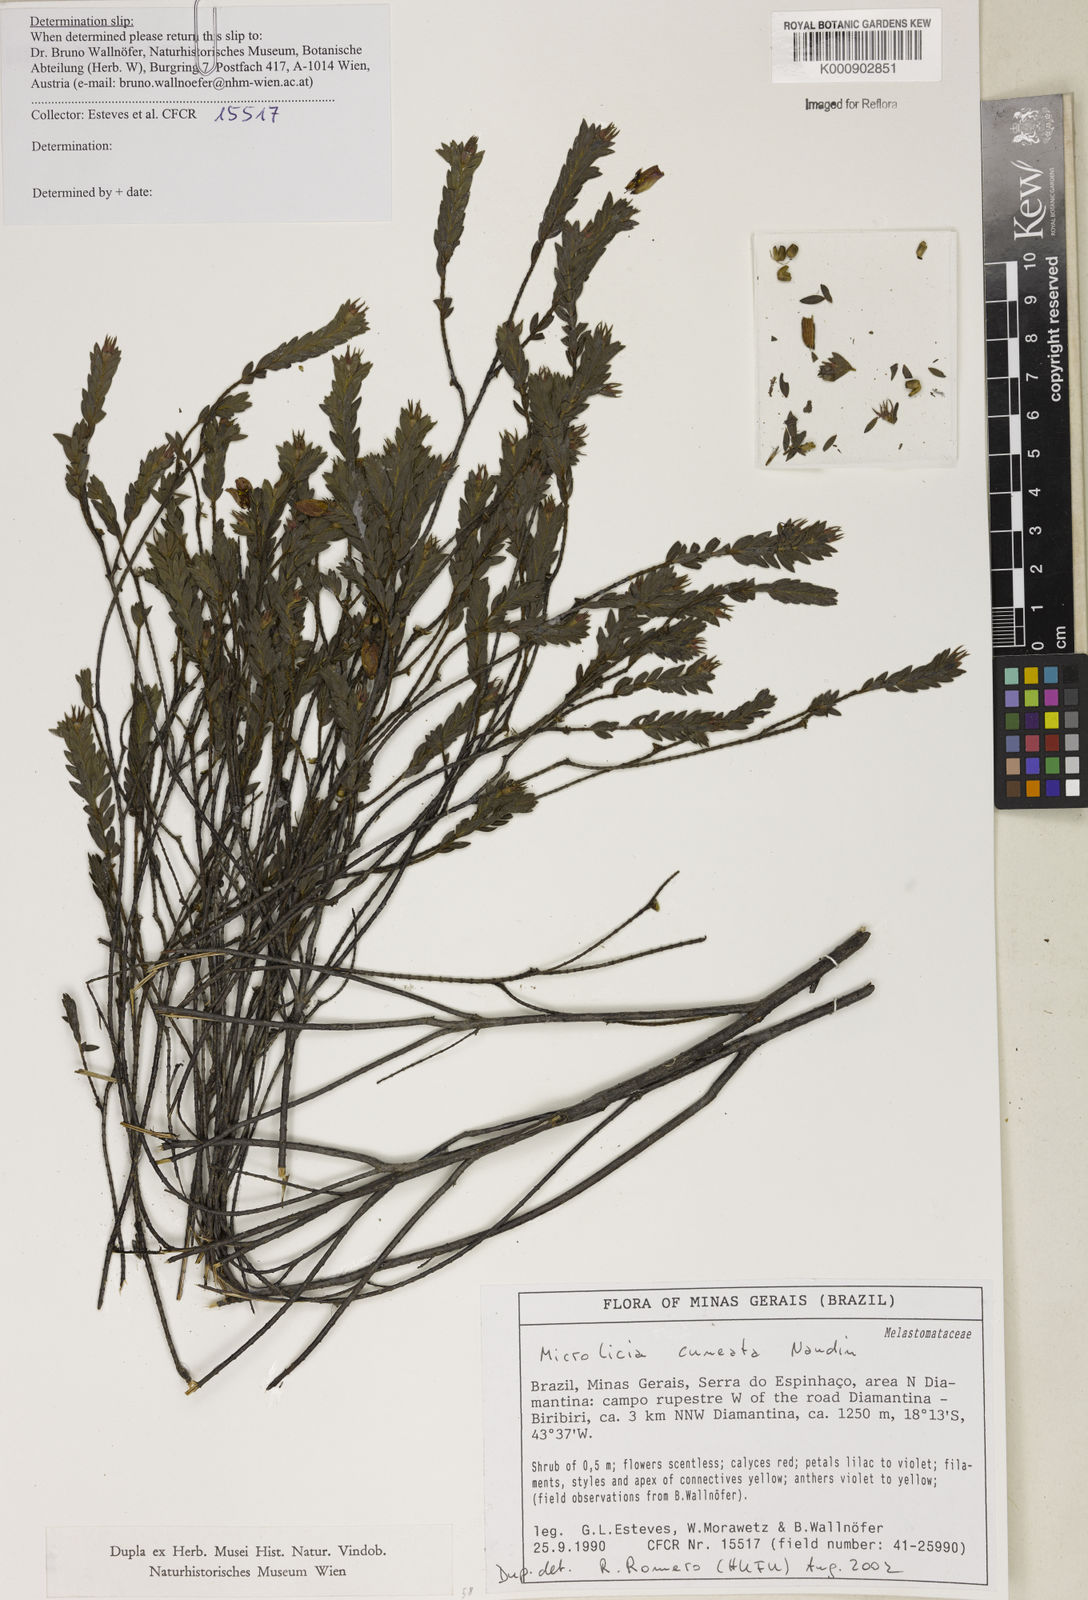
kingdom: Plantae
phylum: Tracheophyta
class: Magnoliopsida
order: Myrtales
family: Melastomataceae
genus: Microlicia
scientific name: Microlicia
